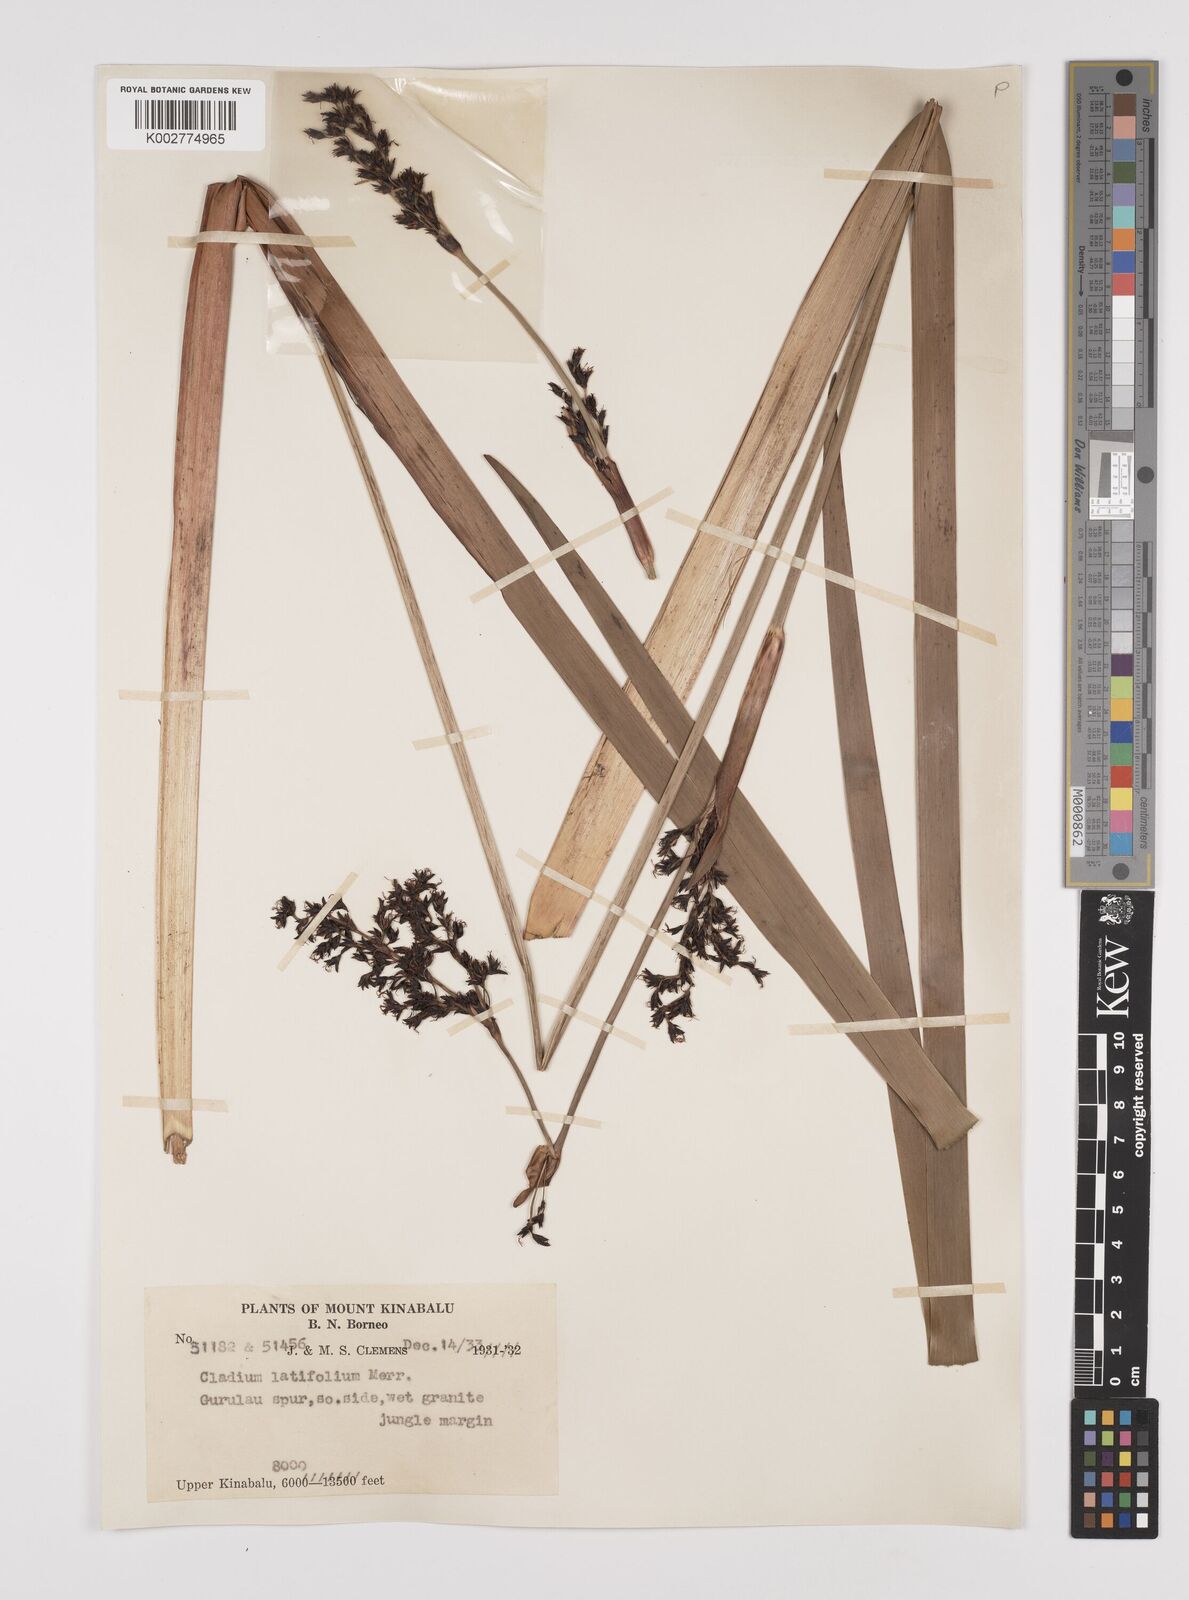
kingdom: Plantae
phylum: Tracheophyta
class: Liliopsida
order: Poales
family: Cyperaceae
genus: Machaerina
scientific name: Machaerina falcata
